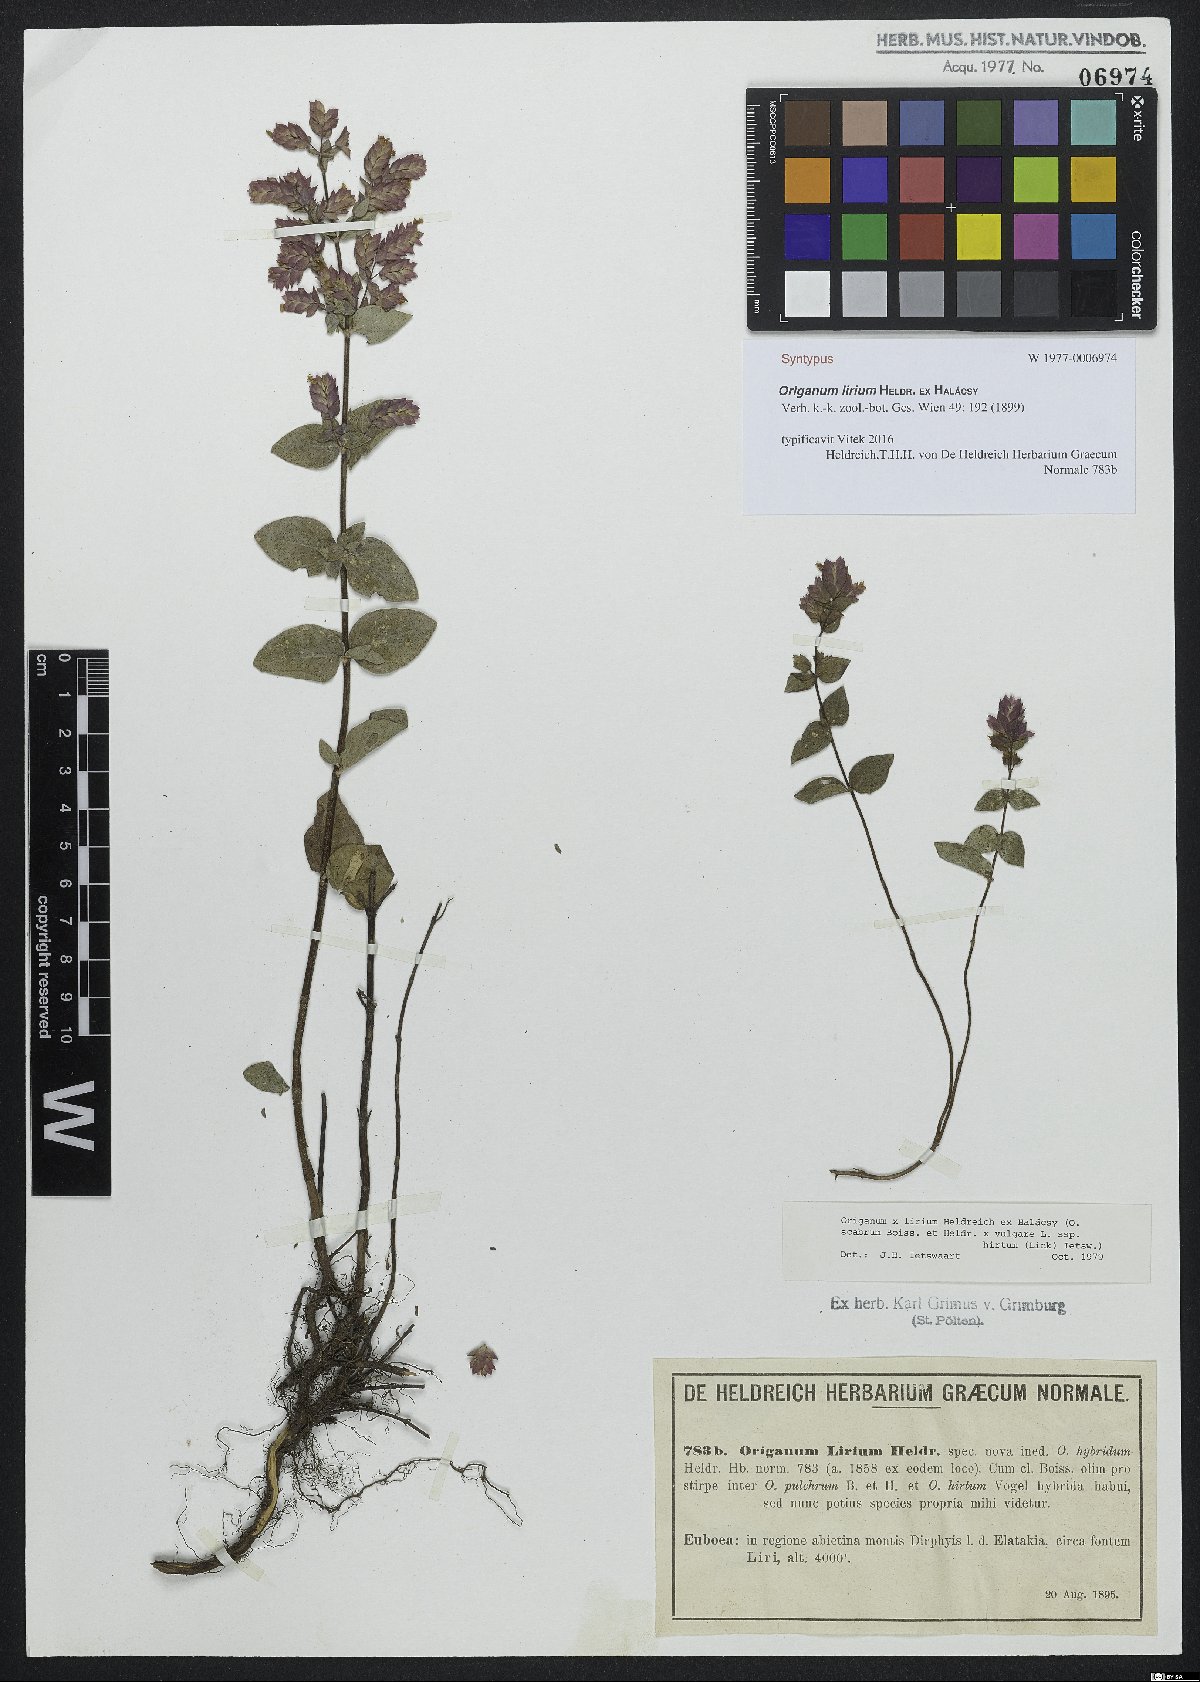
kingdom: Plantae
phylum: Tracheophyta
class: Magnoliopsida
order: Lamiales
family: Lamiaceae
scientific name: Lamiaceae
